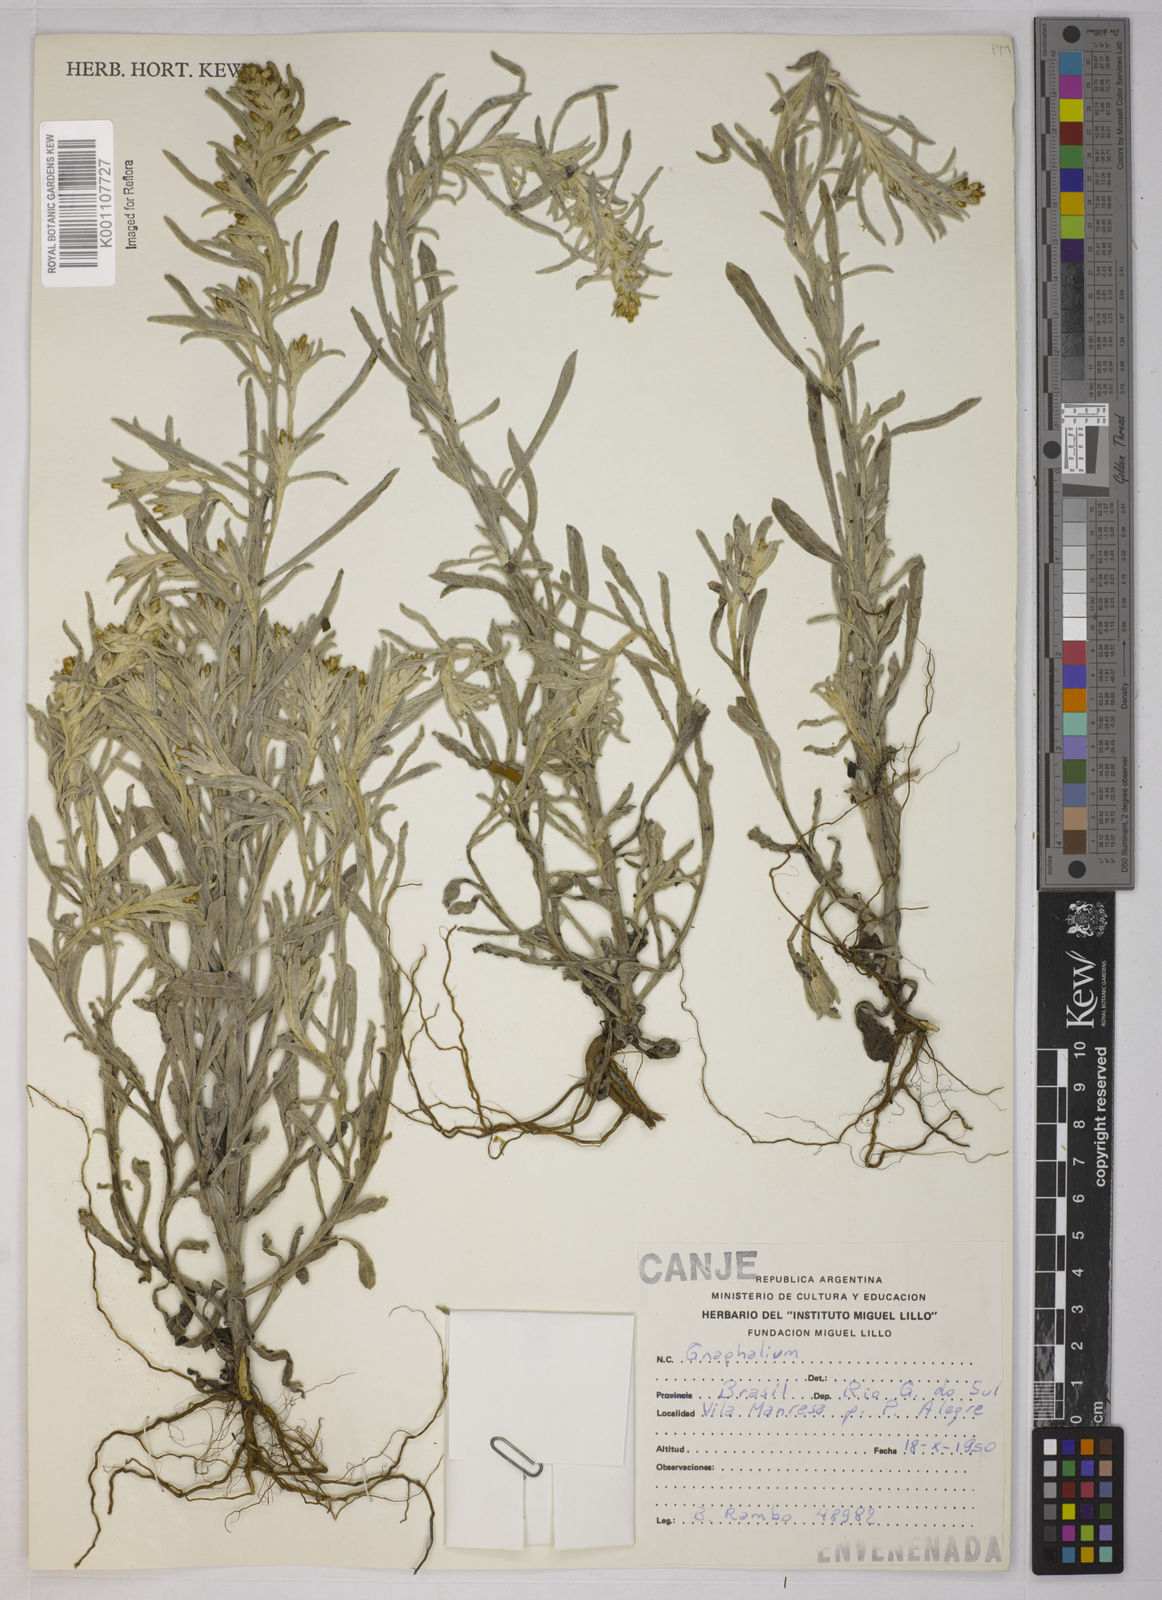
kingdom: Plantae
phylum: Tracheophyta
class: Magnoliopsida
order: Asterales
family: Asteraceae
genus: Gnaphalium
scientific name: Gnaphalium
